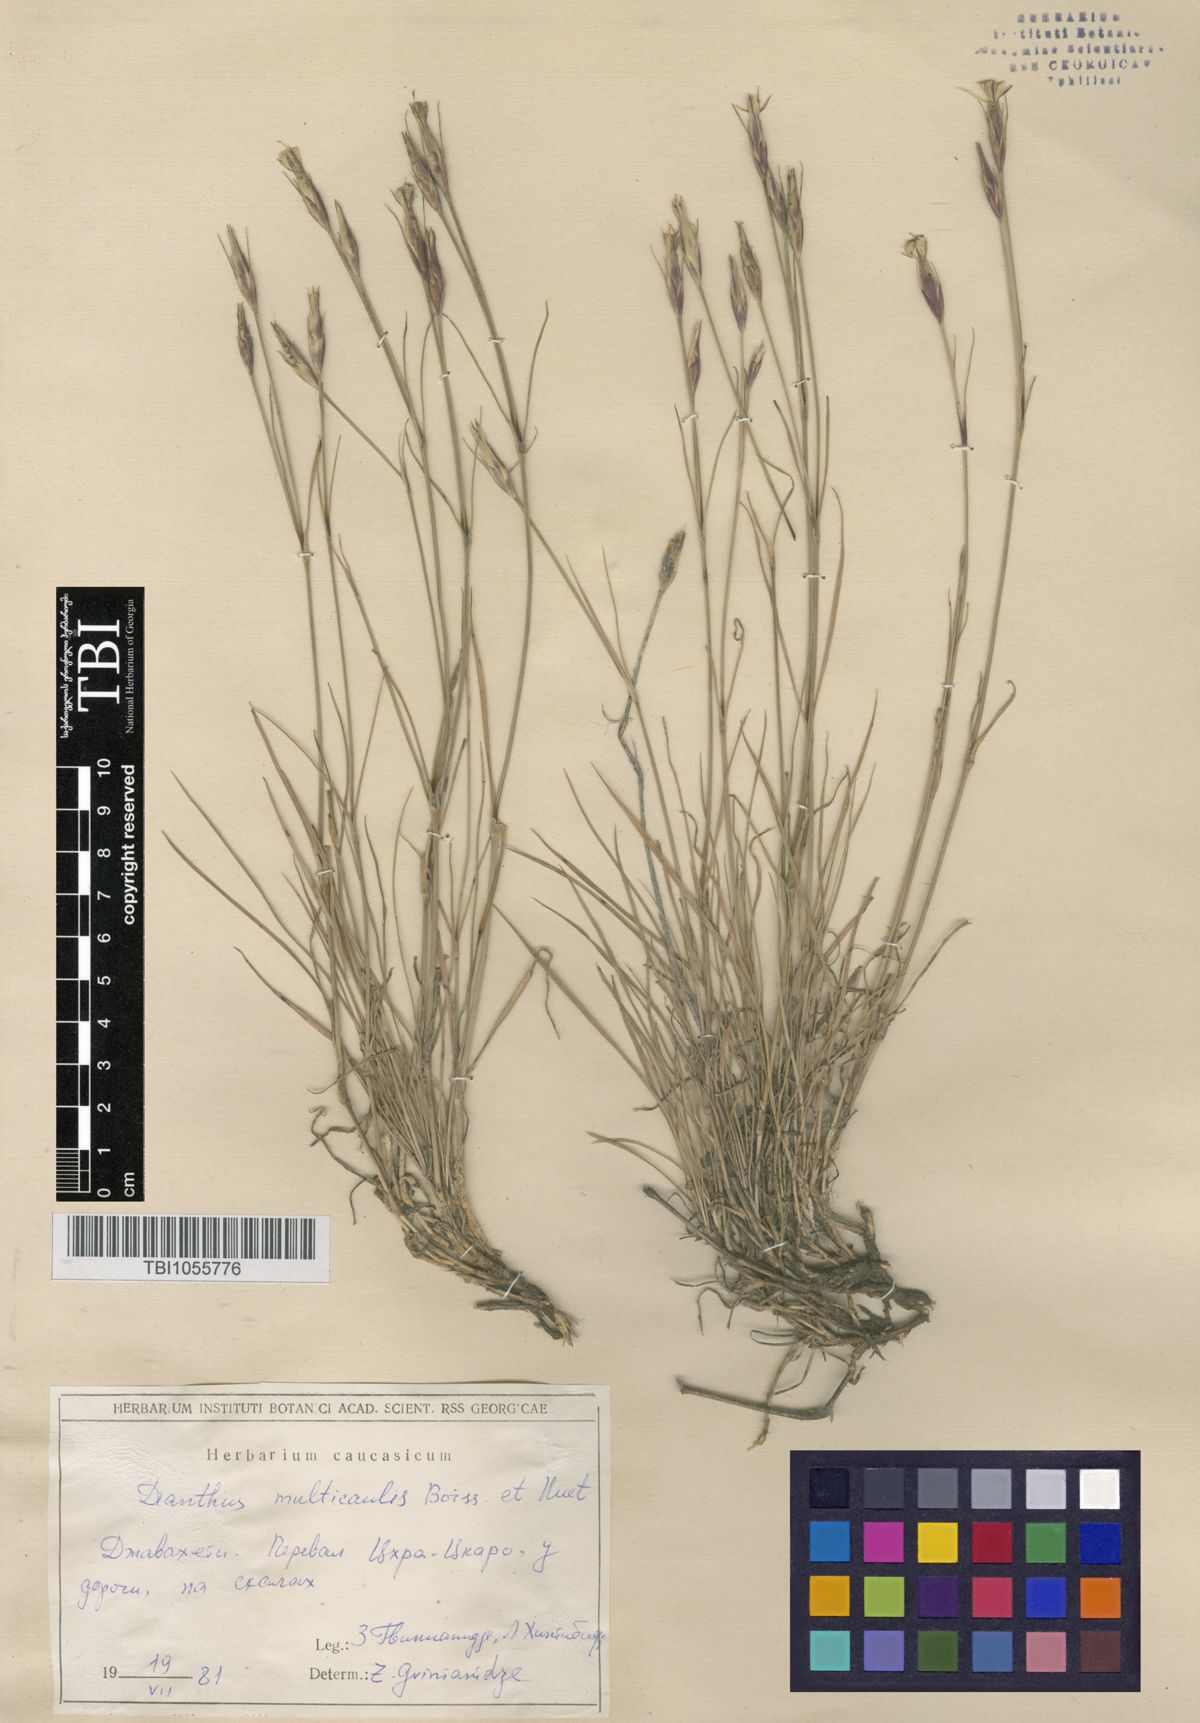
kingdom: Plantae
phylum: Tracheophyta
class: Magnoliopsida
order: Caryophyllales
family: Caryophyllaceae
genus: Dianthus
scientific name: Dianthus cretaceus
